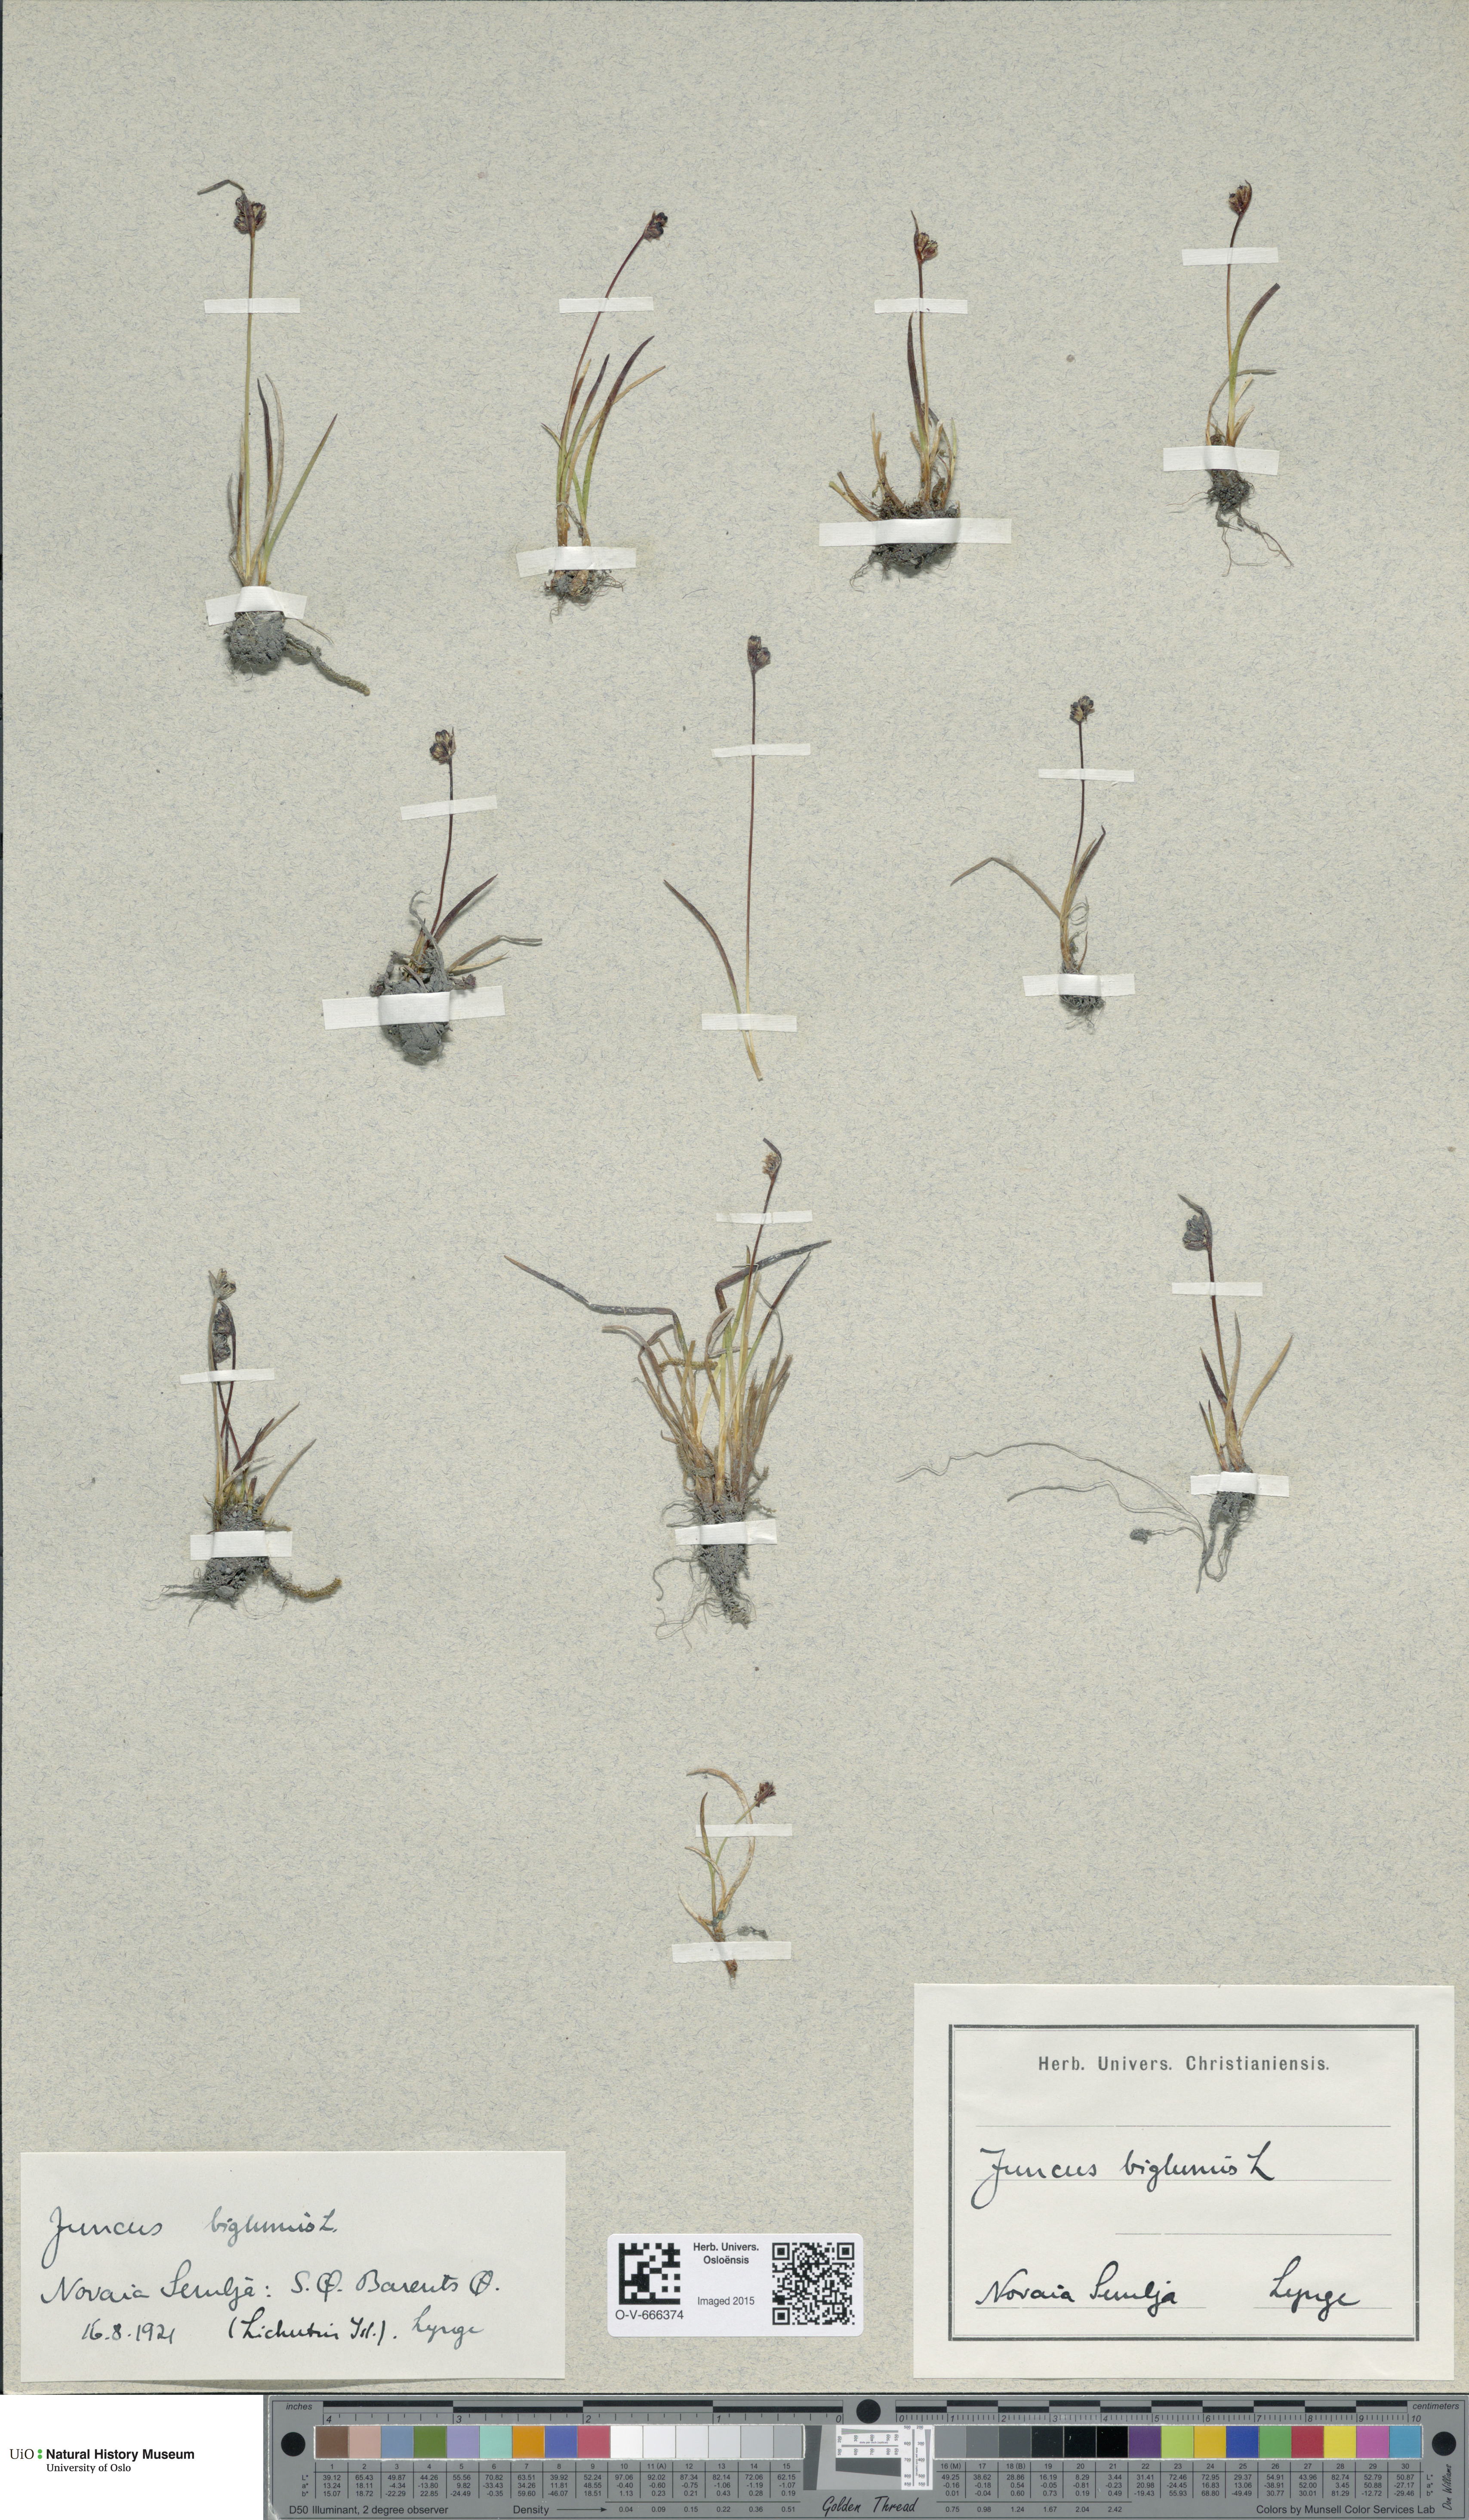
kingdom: Plantae
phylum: Tracheophyta
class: Liliopsida
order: Poales
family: Juncaceae
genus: Juncus
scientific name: Juncus biglumis
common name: Two-flowered rush
